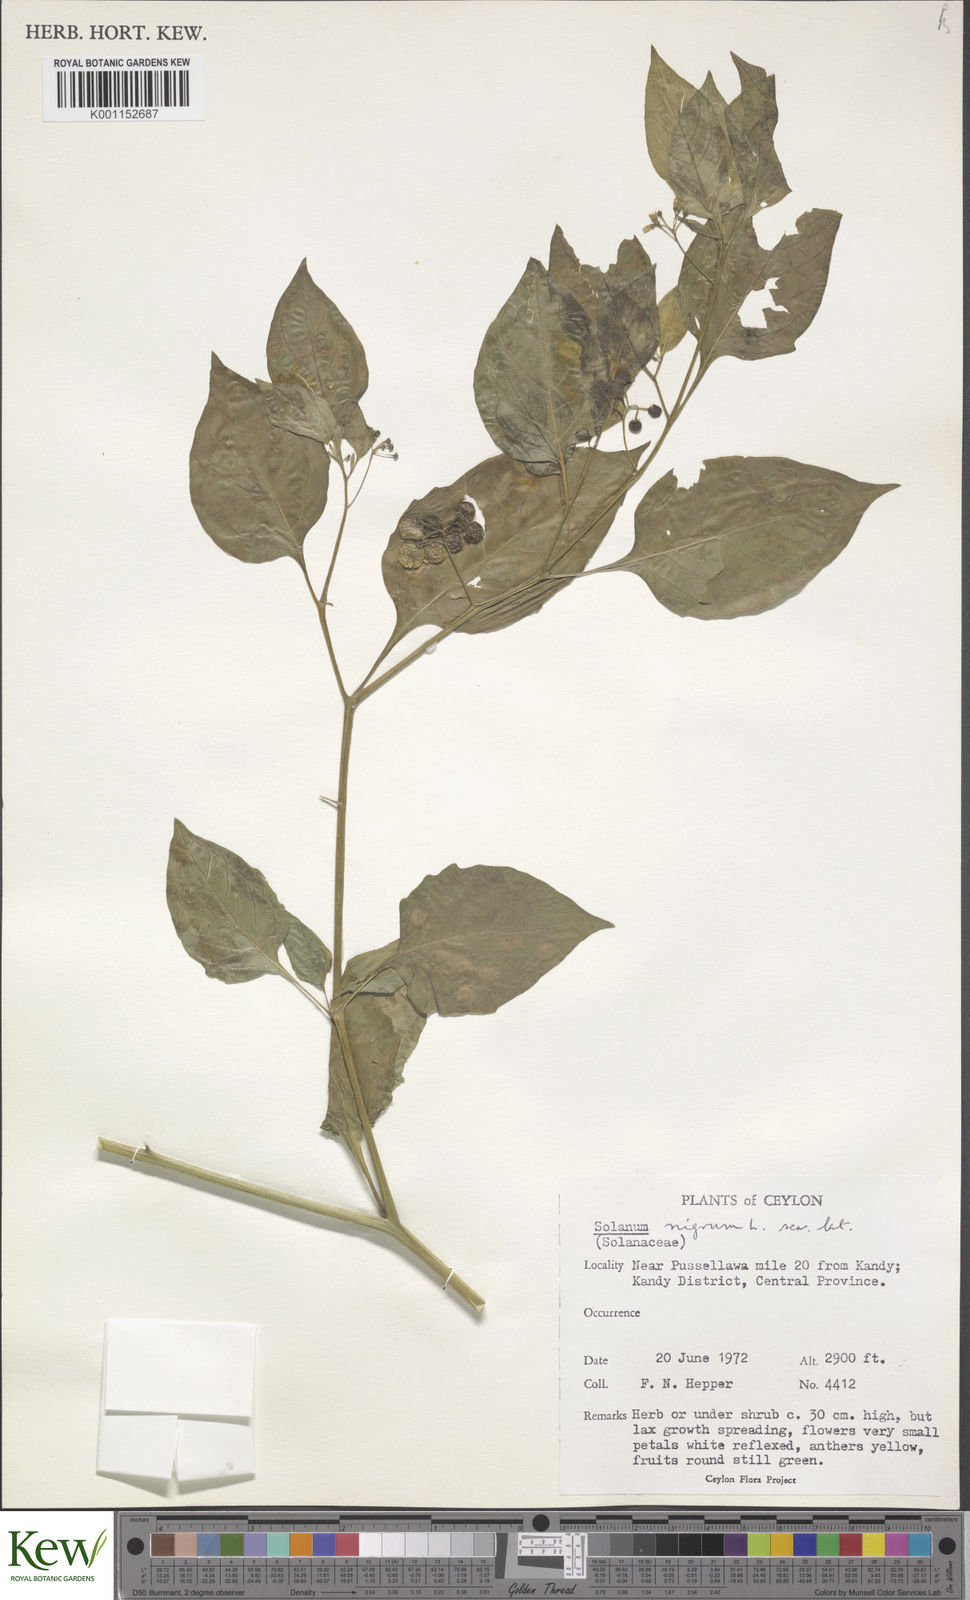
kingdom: Plantae
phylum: Tracheophyta
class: Magnoliopsida
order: Solanales
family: Solanaceae
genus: Solanum
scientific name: Solanum nigrum
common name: Black nightshade
